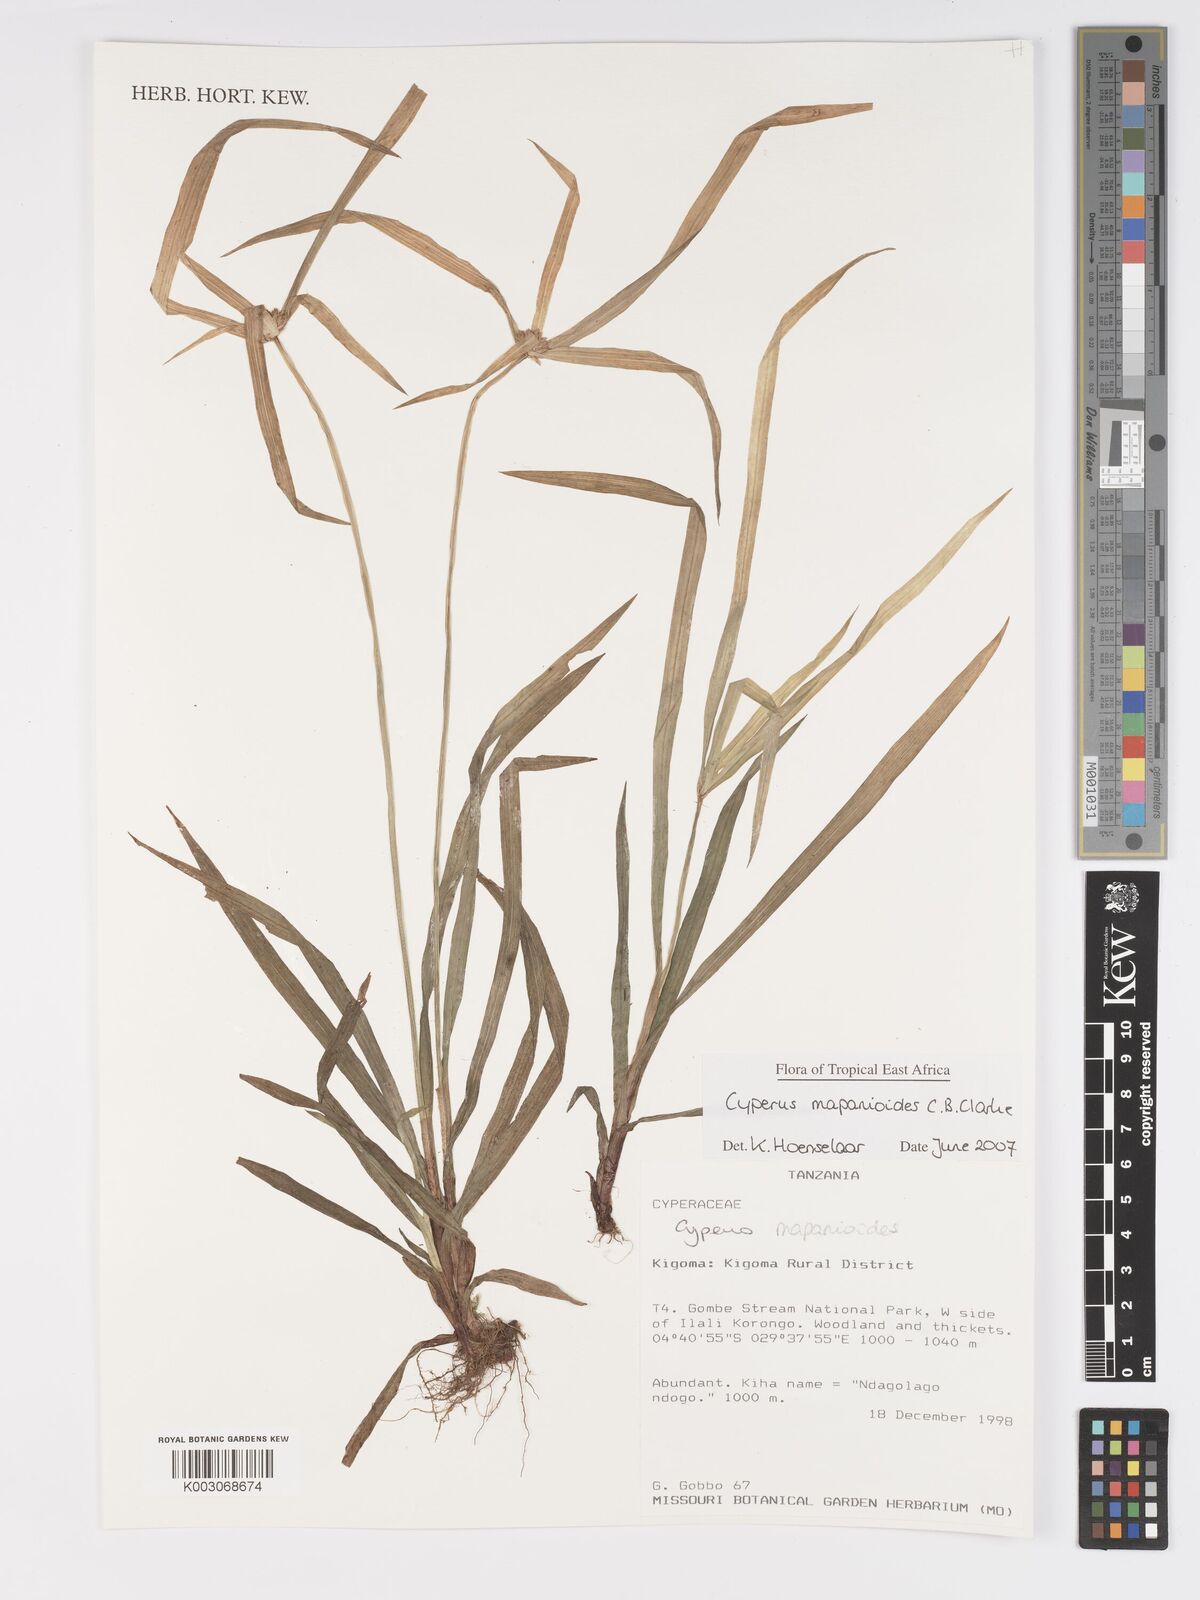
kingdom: Plantae
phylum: Tracheophyta
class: Liliopsida
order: Poales
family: Cyperaceae
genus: Cyperus
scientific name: Cyperus mapanioides
